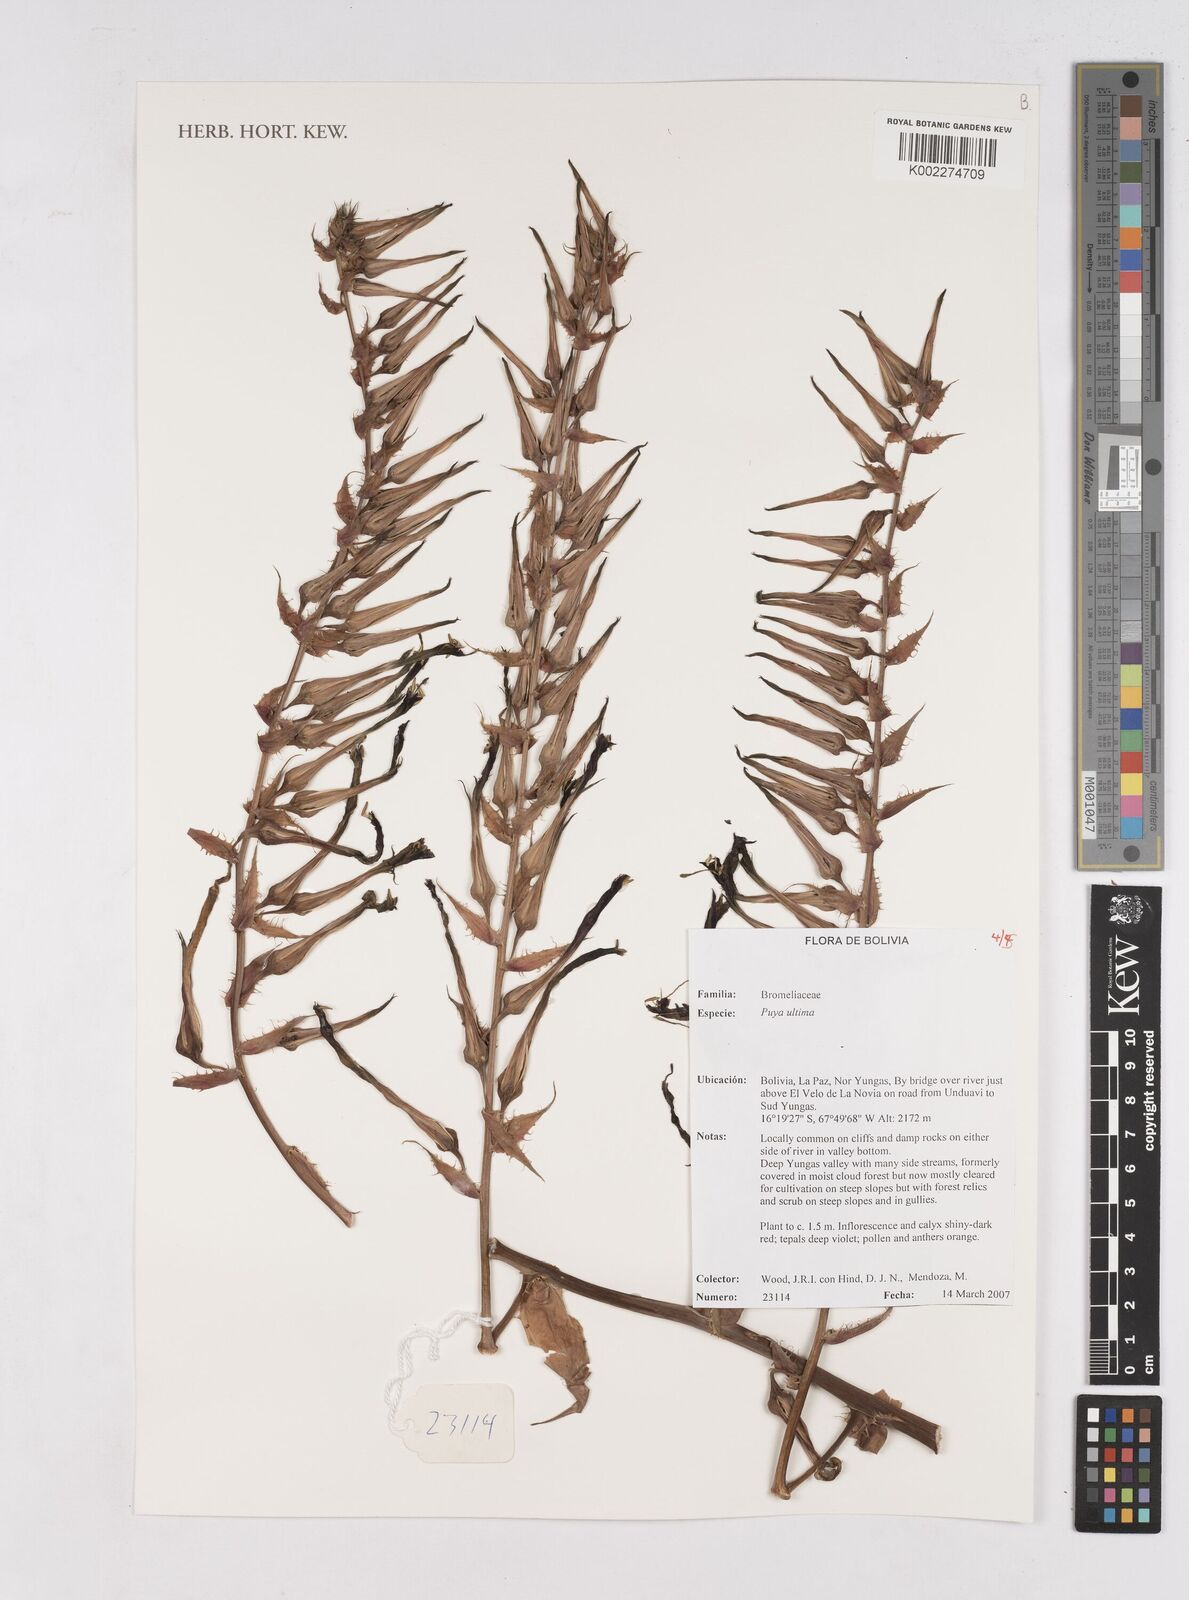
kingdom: Plantae
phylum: Tracheophyta
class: Liliopsida
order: Poales
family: Bromeliaceae
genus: Puya
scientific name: Puya
